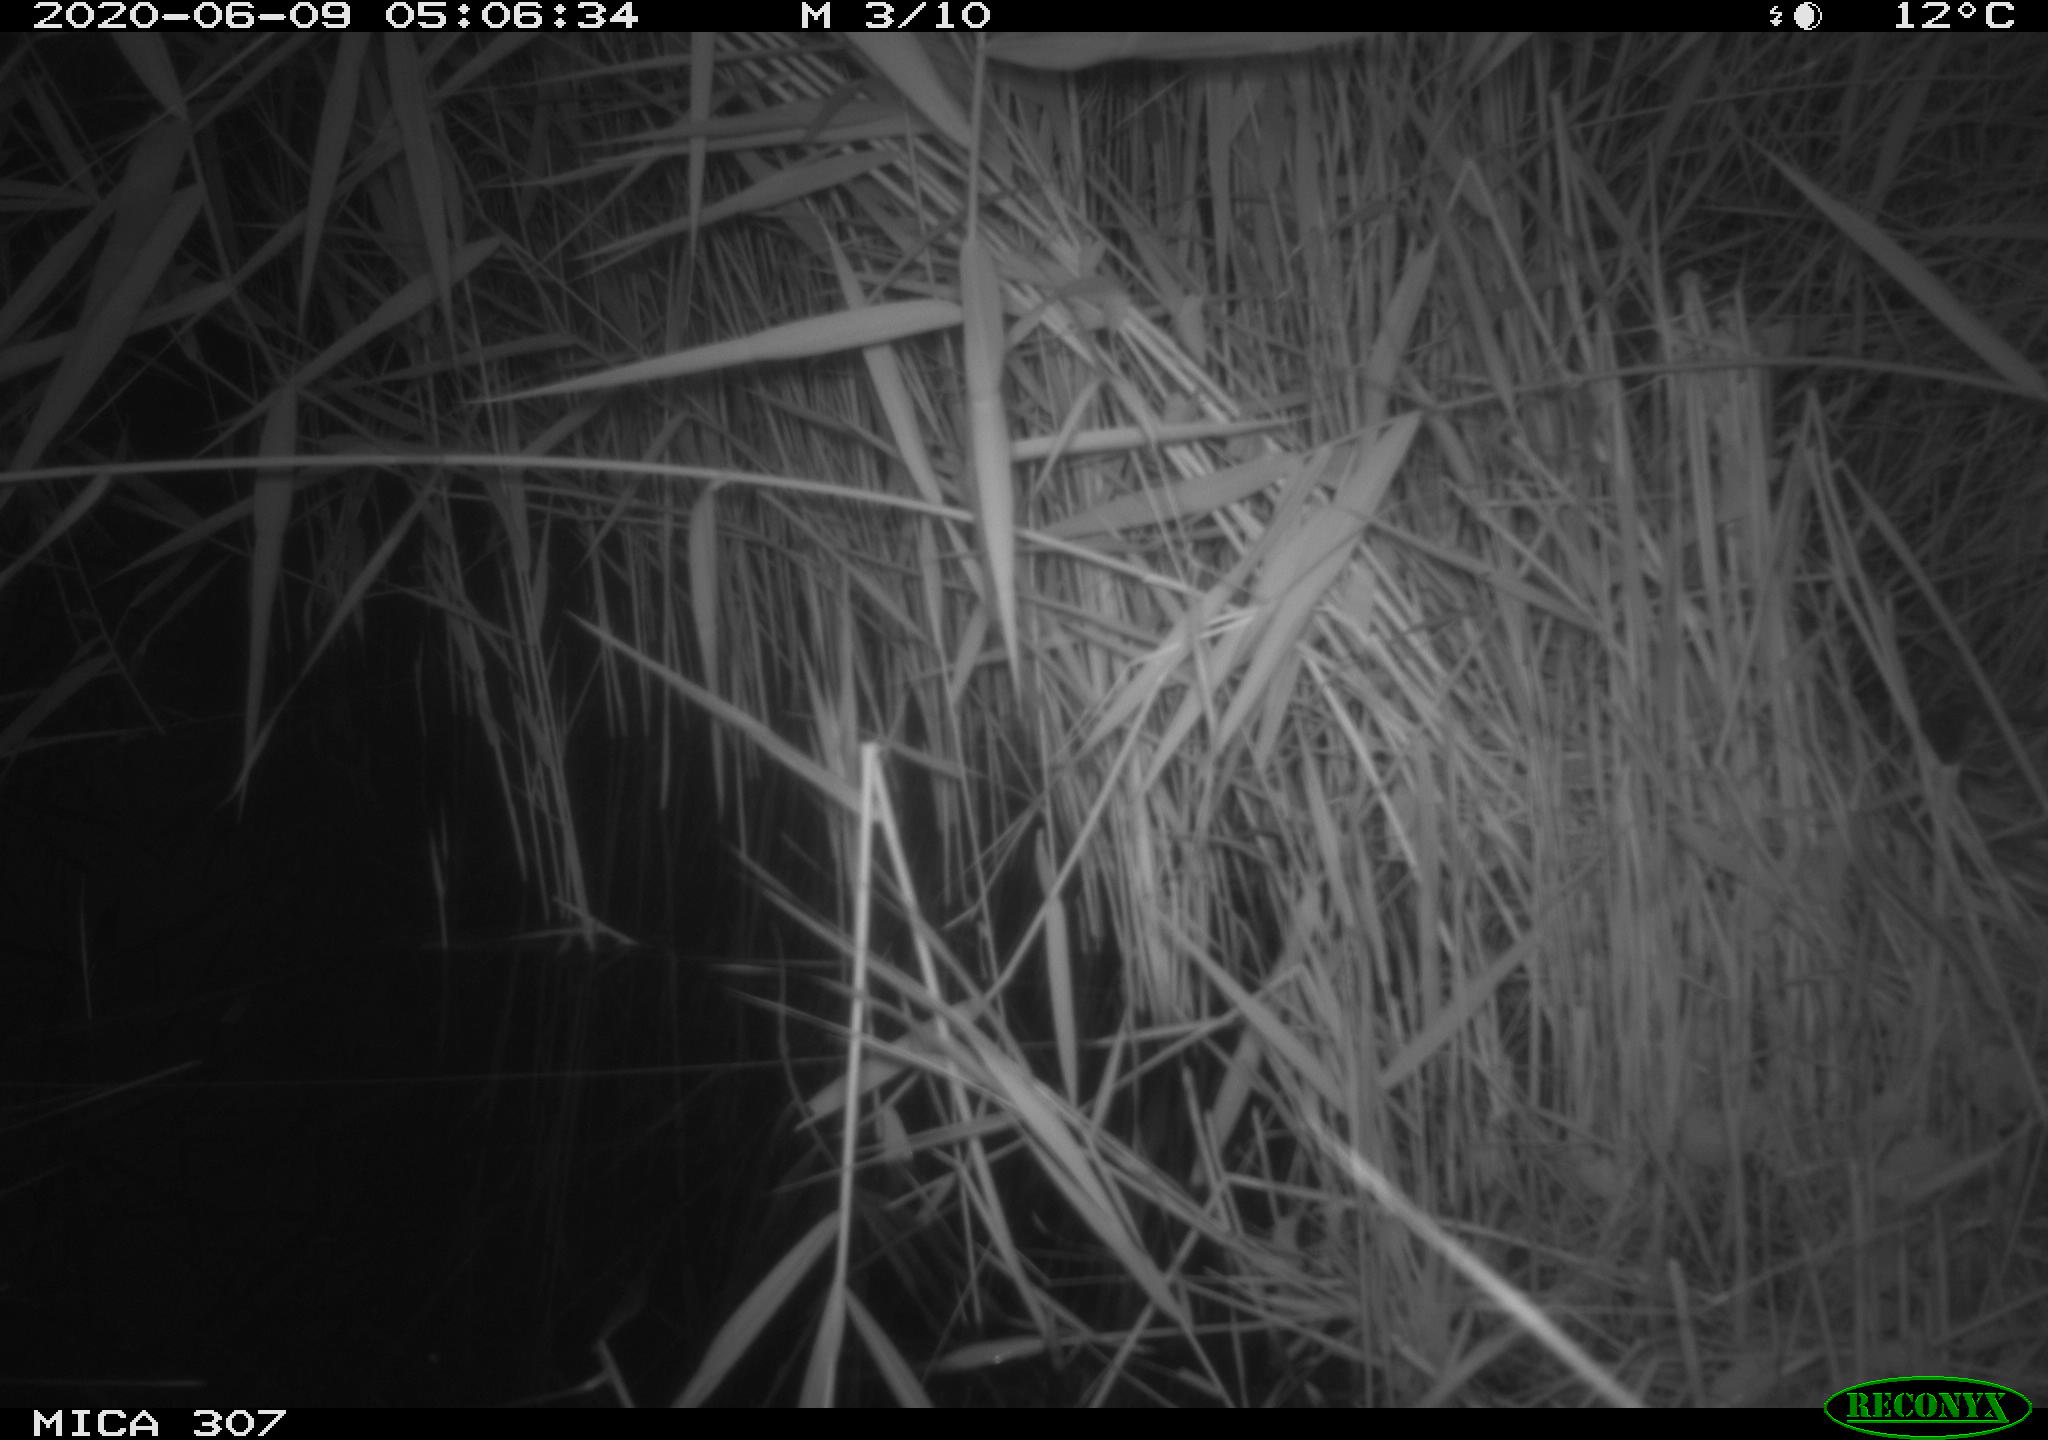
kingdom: Animalia
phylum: Chordata
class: Mammalia
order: Rodentia
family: Muridae
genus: Rattus
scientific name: Rattus norvegicus
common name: Brown rat
